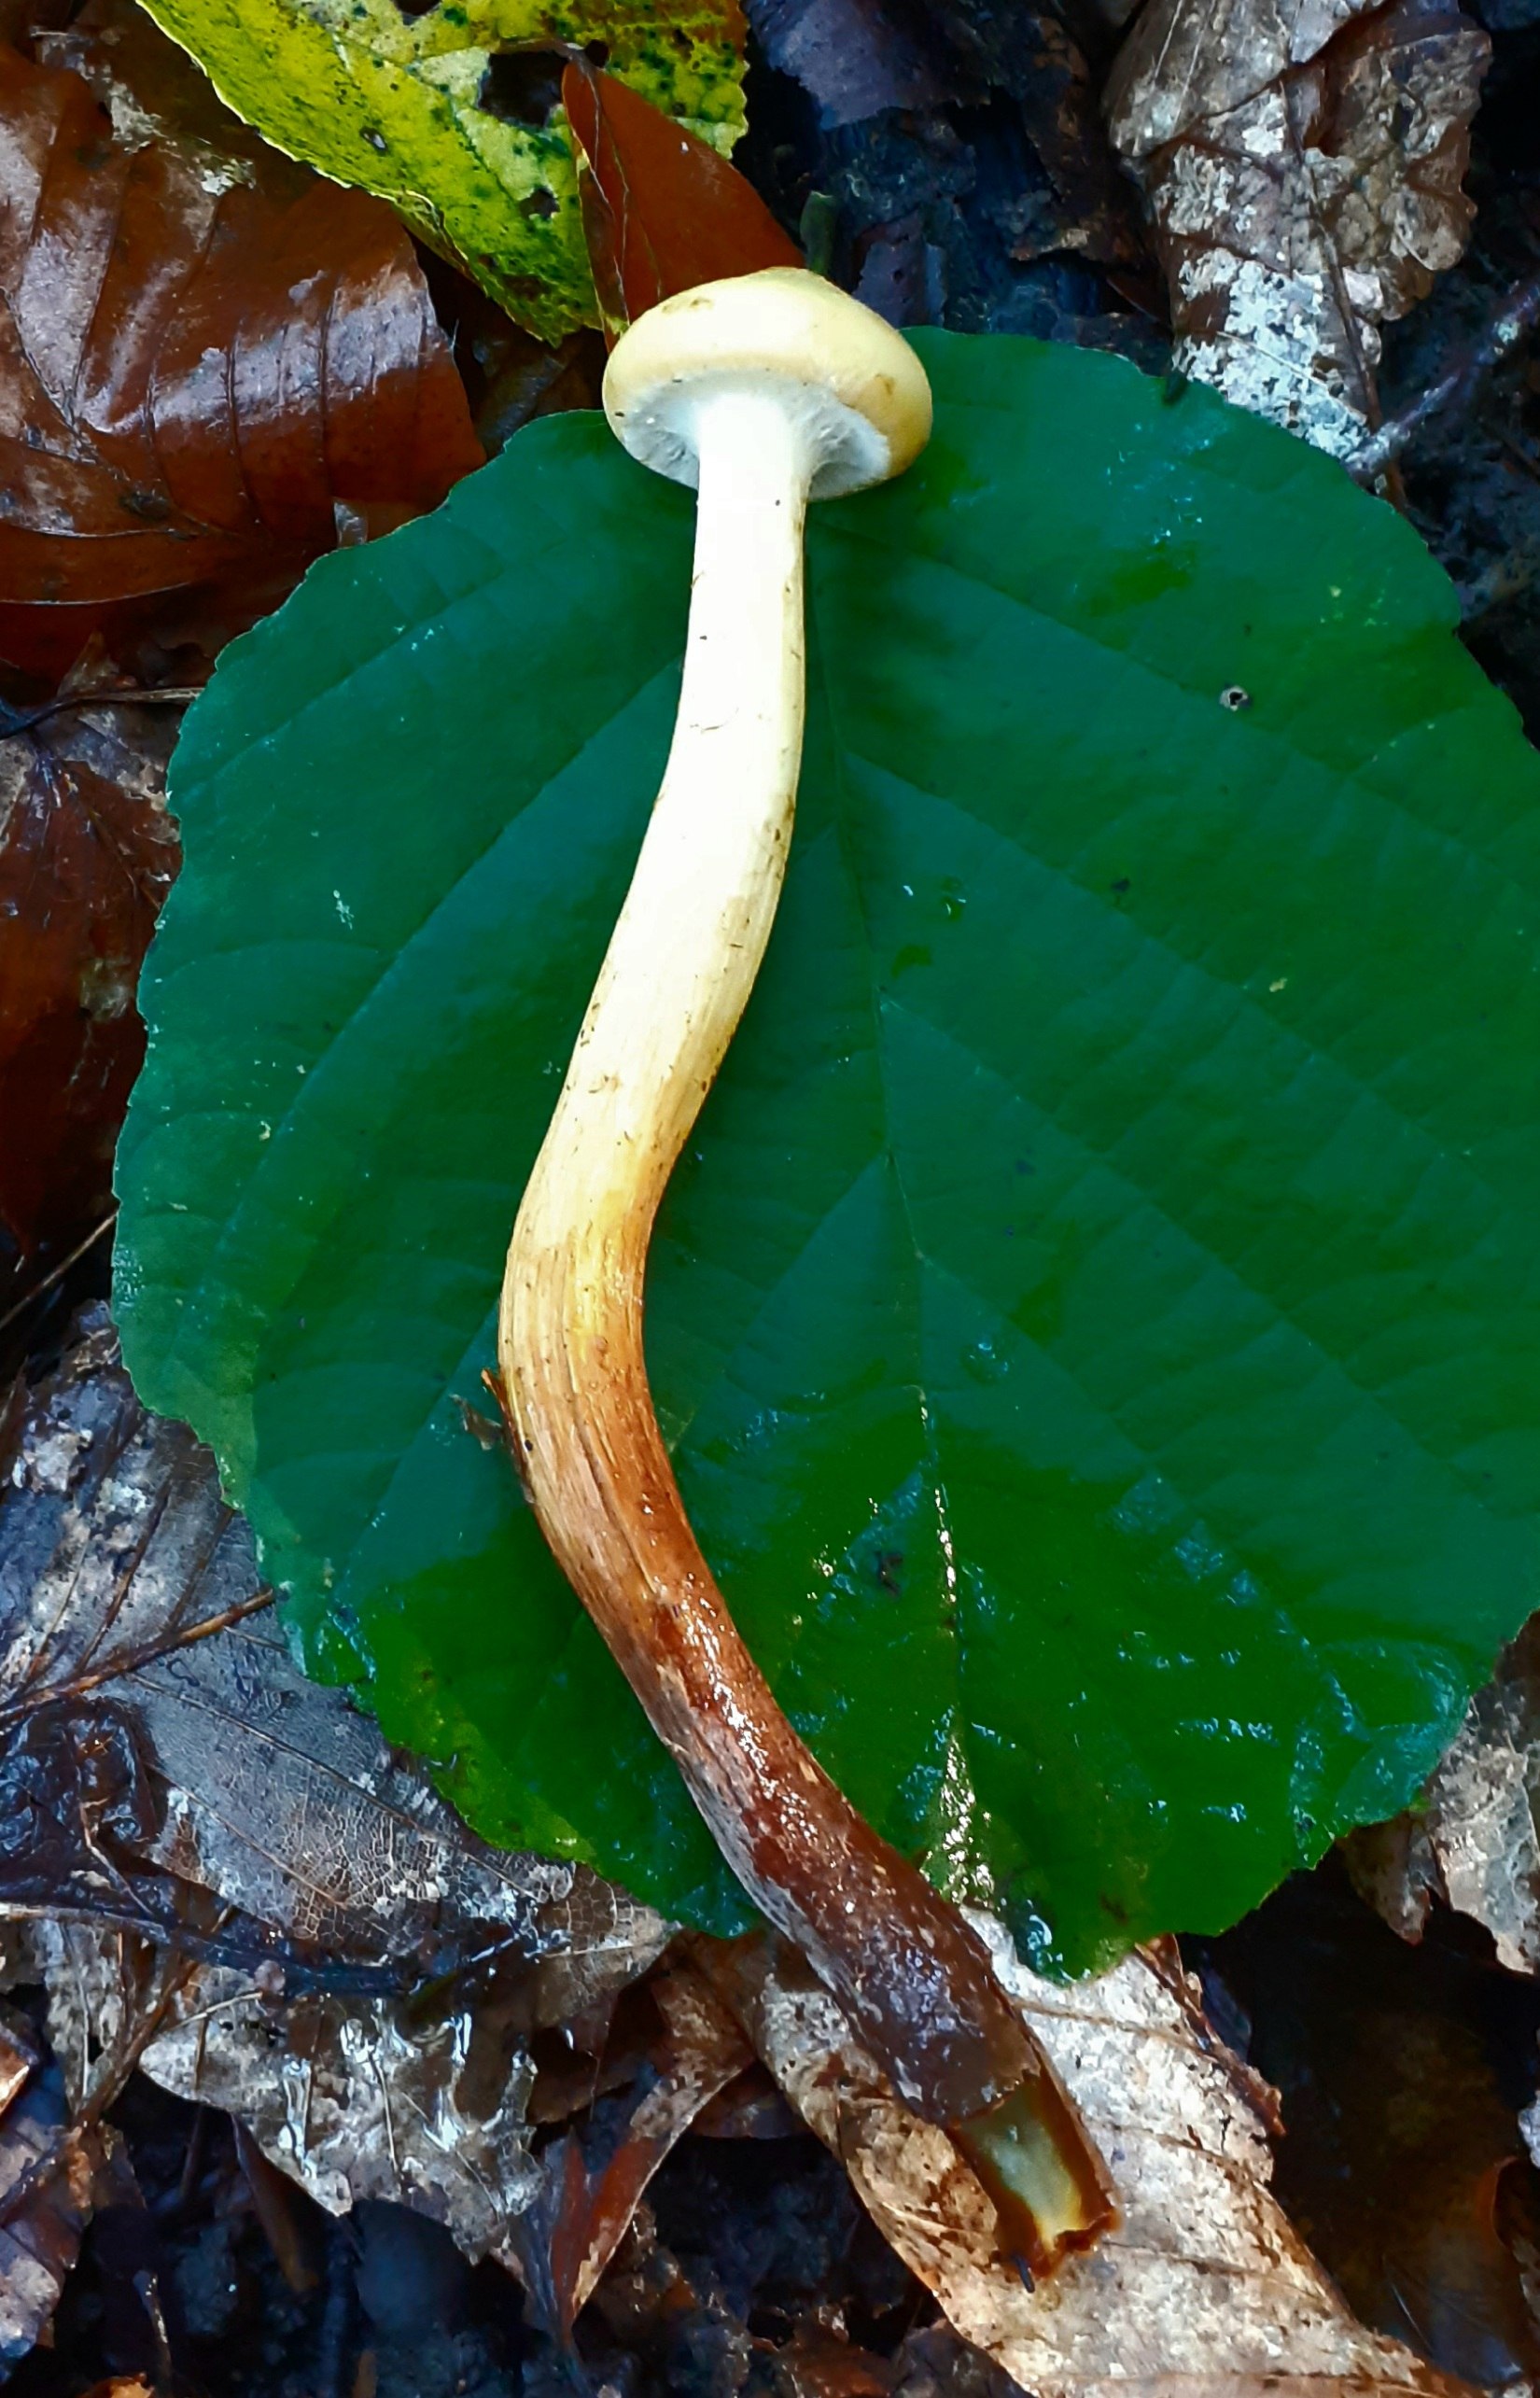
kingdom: Fungi
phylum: Basidiomycota
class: Agaricomycetes
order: Agaricales
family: Hymenogastraceae
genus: Flammula
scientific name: Flammula alnicola
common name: elle-skælhat
